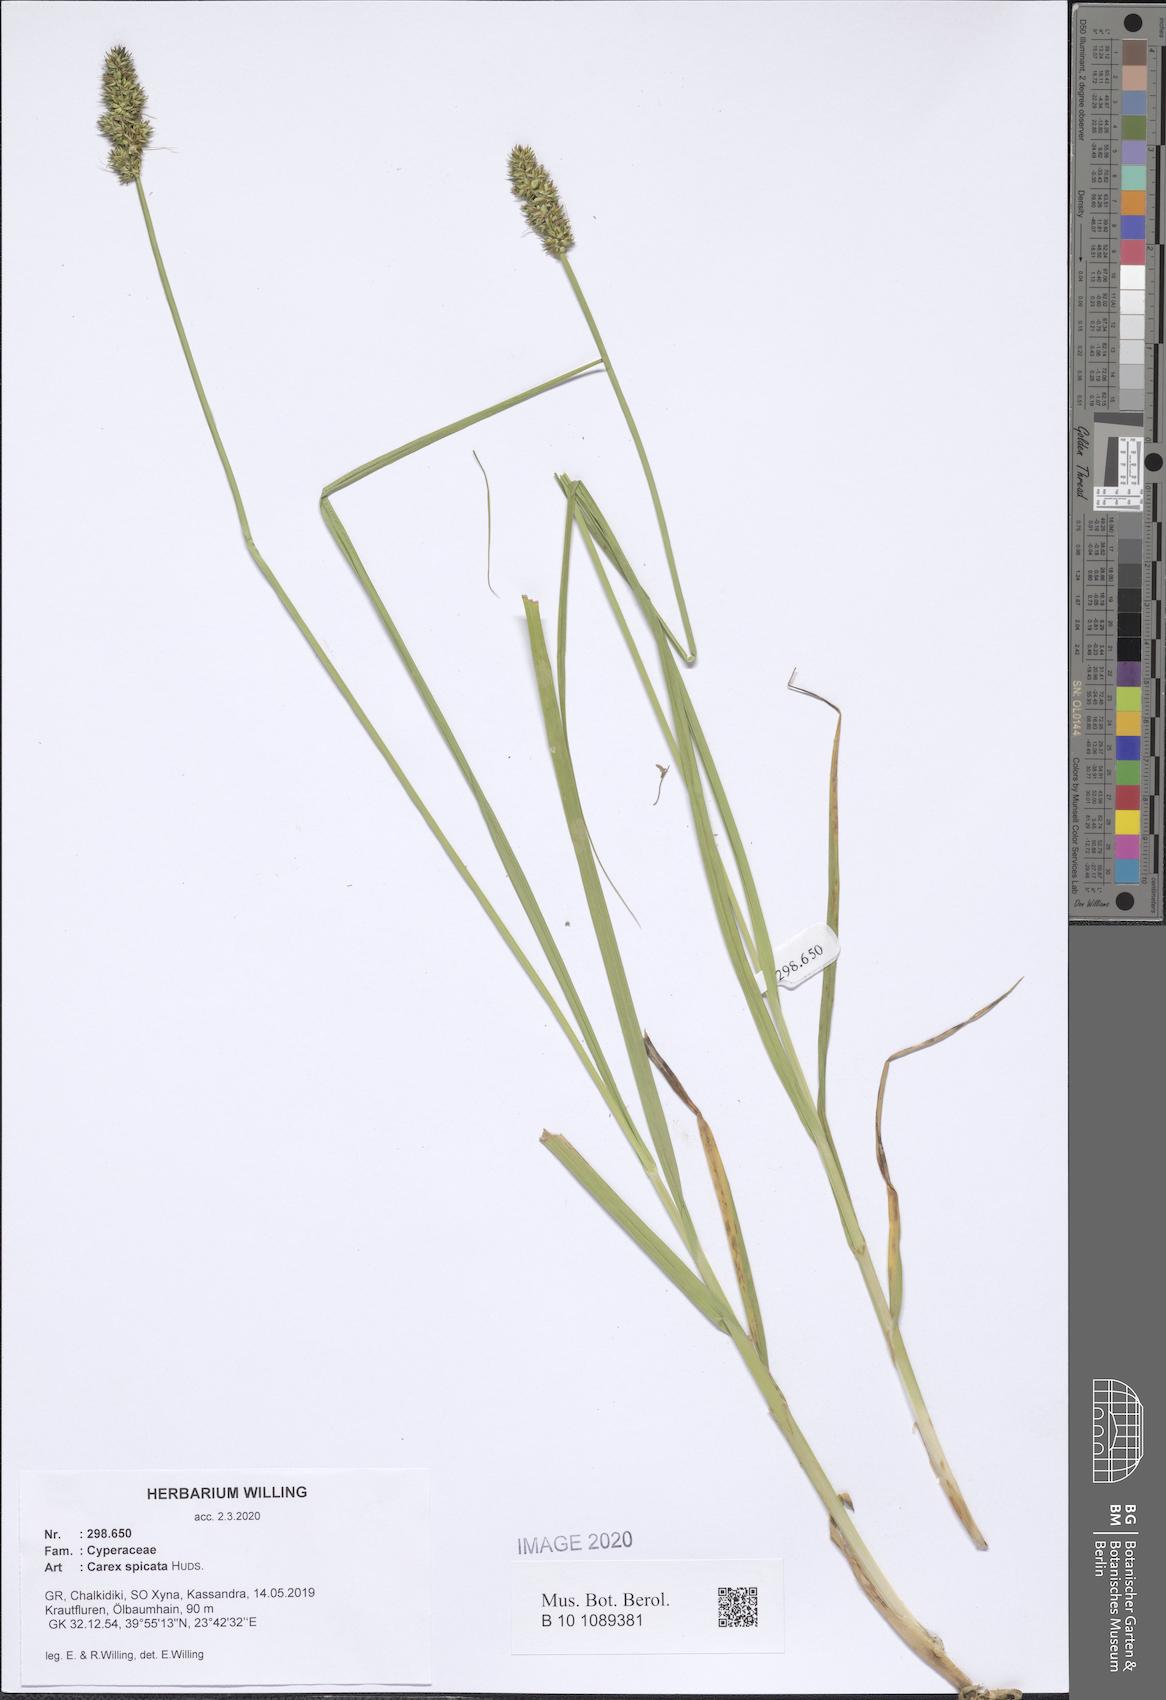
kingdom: Plantae
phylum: Tracheophyta
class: Liliopsida
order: Poales
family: Cyperaceae
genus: Carex
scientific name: Carex spicata
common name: Spiked sedge
